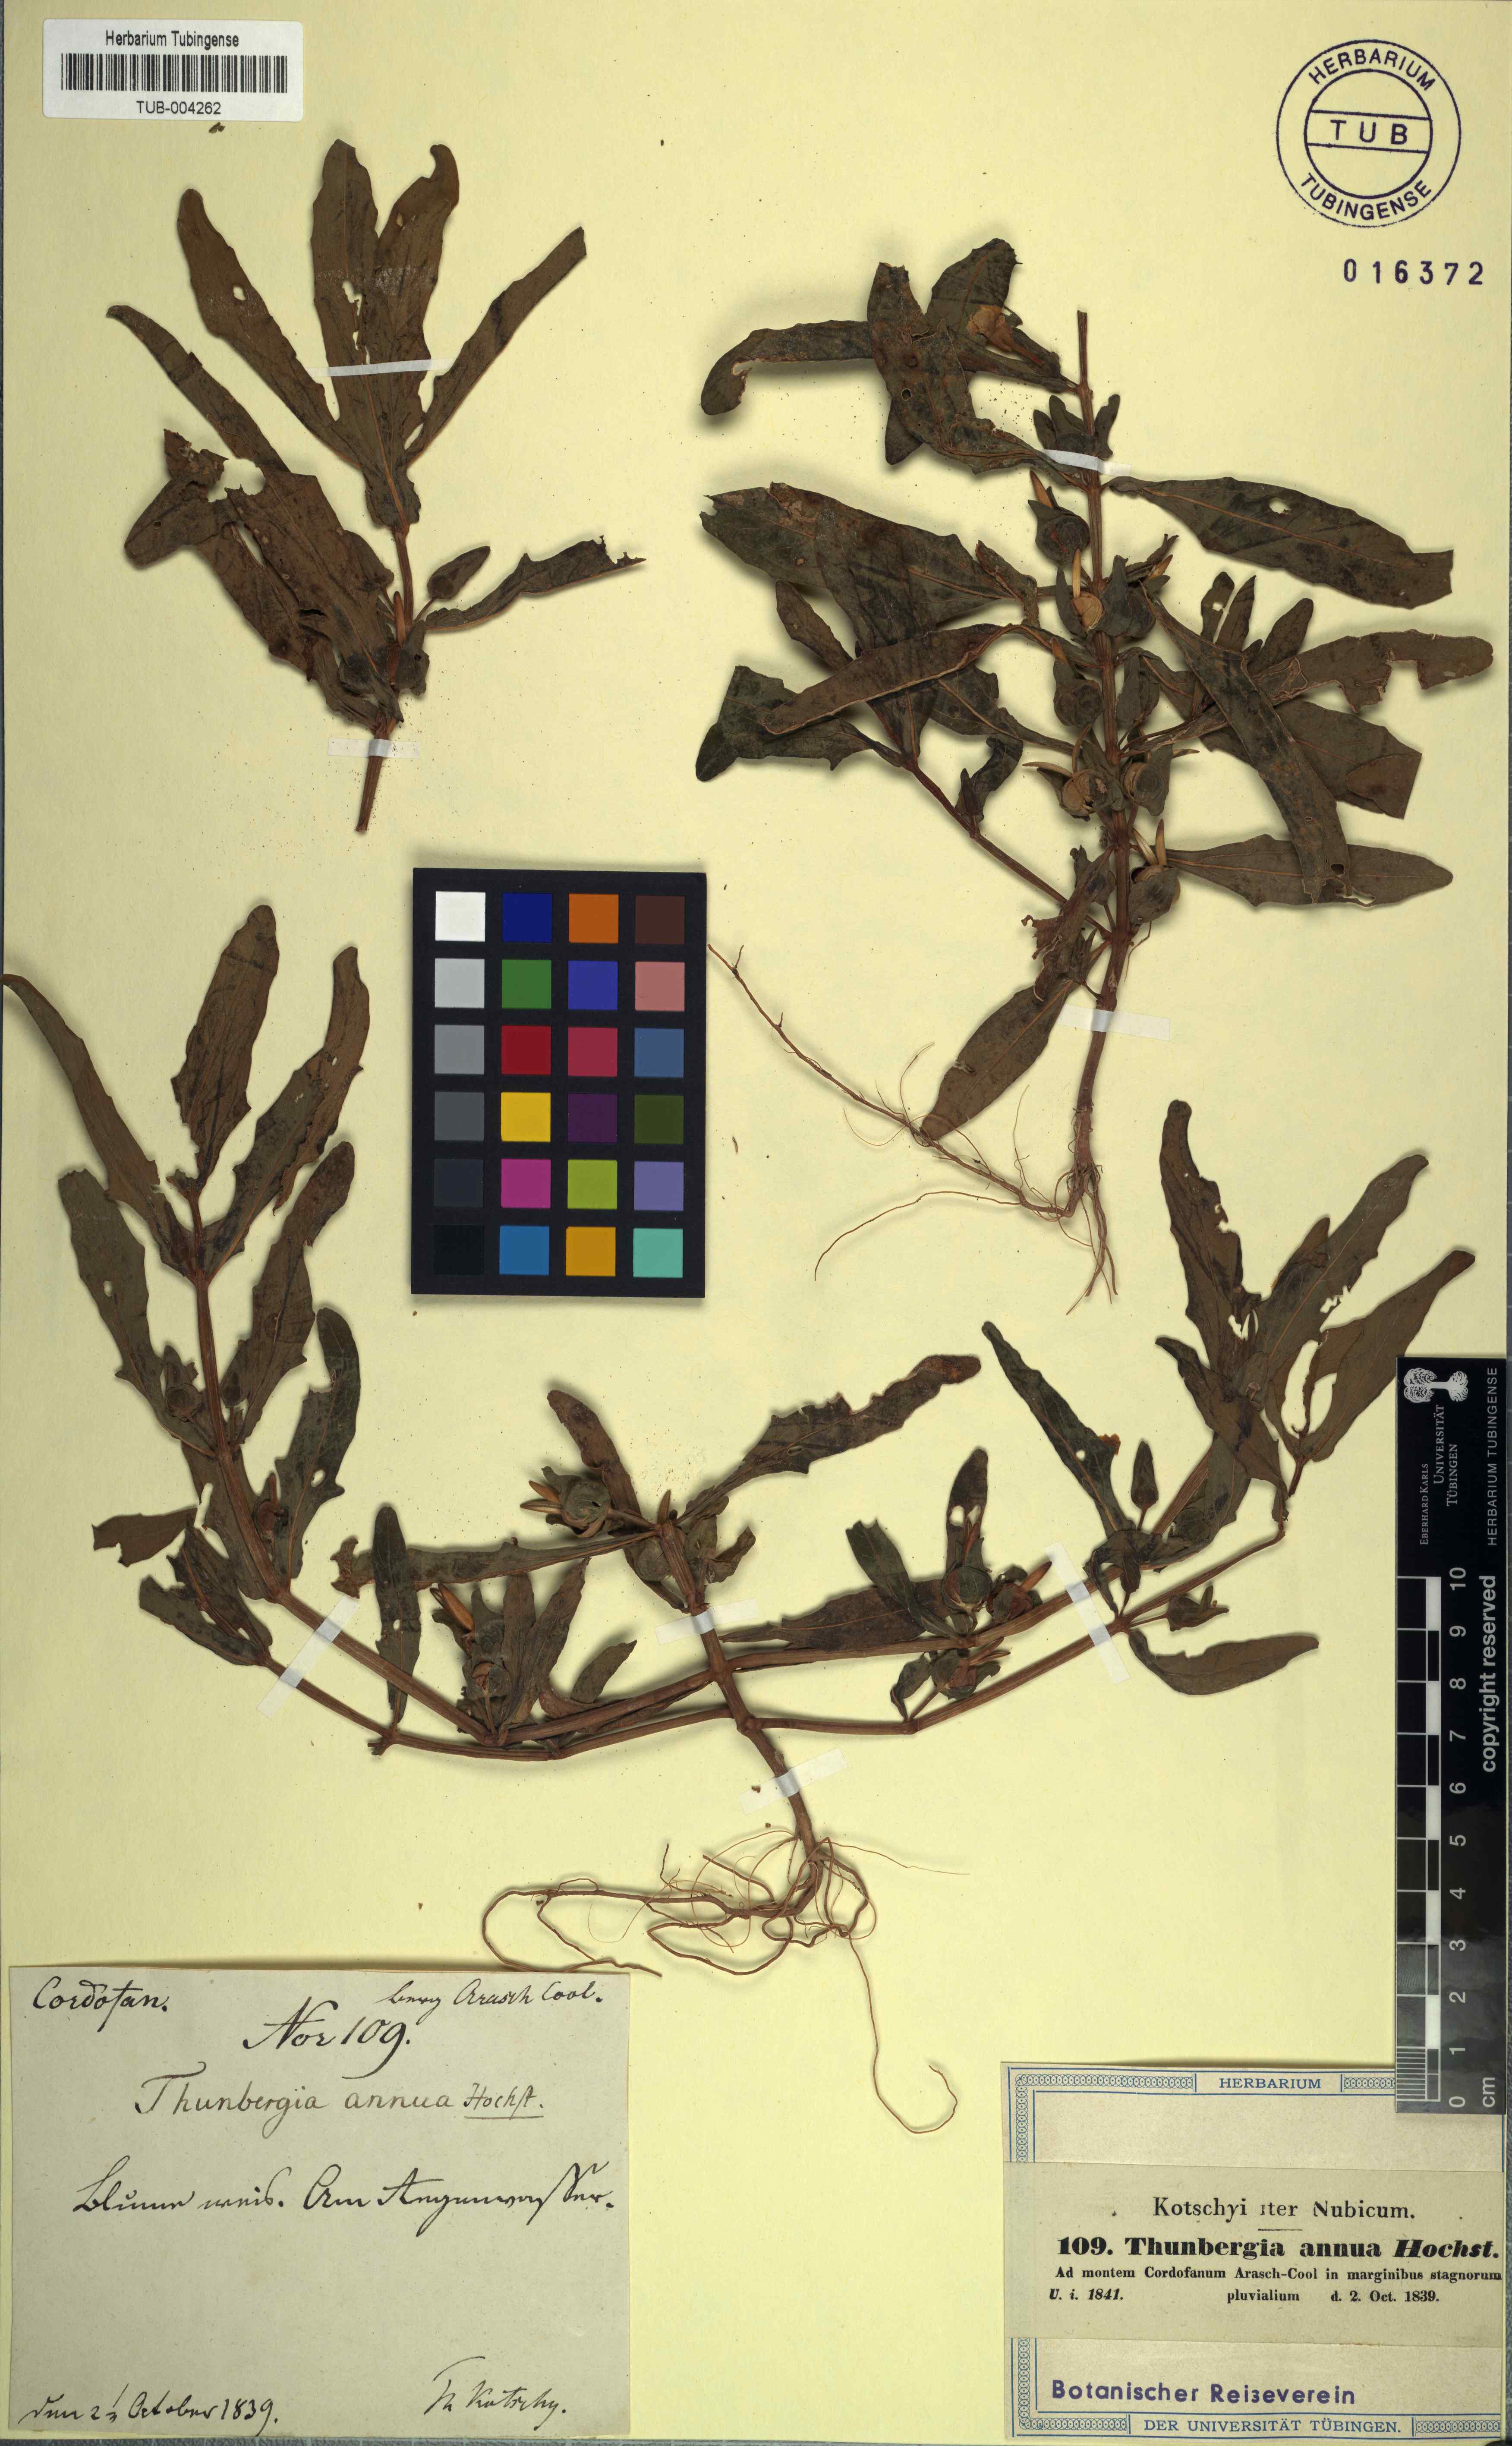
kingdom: Plantae
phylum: Tracheophyta
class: Magnoliopsida
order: Lamiales
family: Acanthaceae
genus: Thunbergia
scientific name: Thunbergia annua
